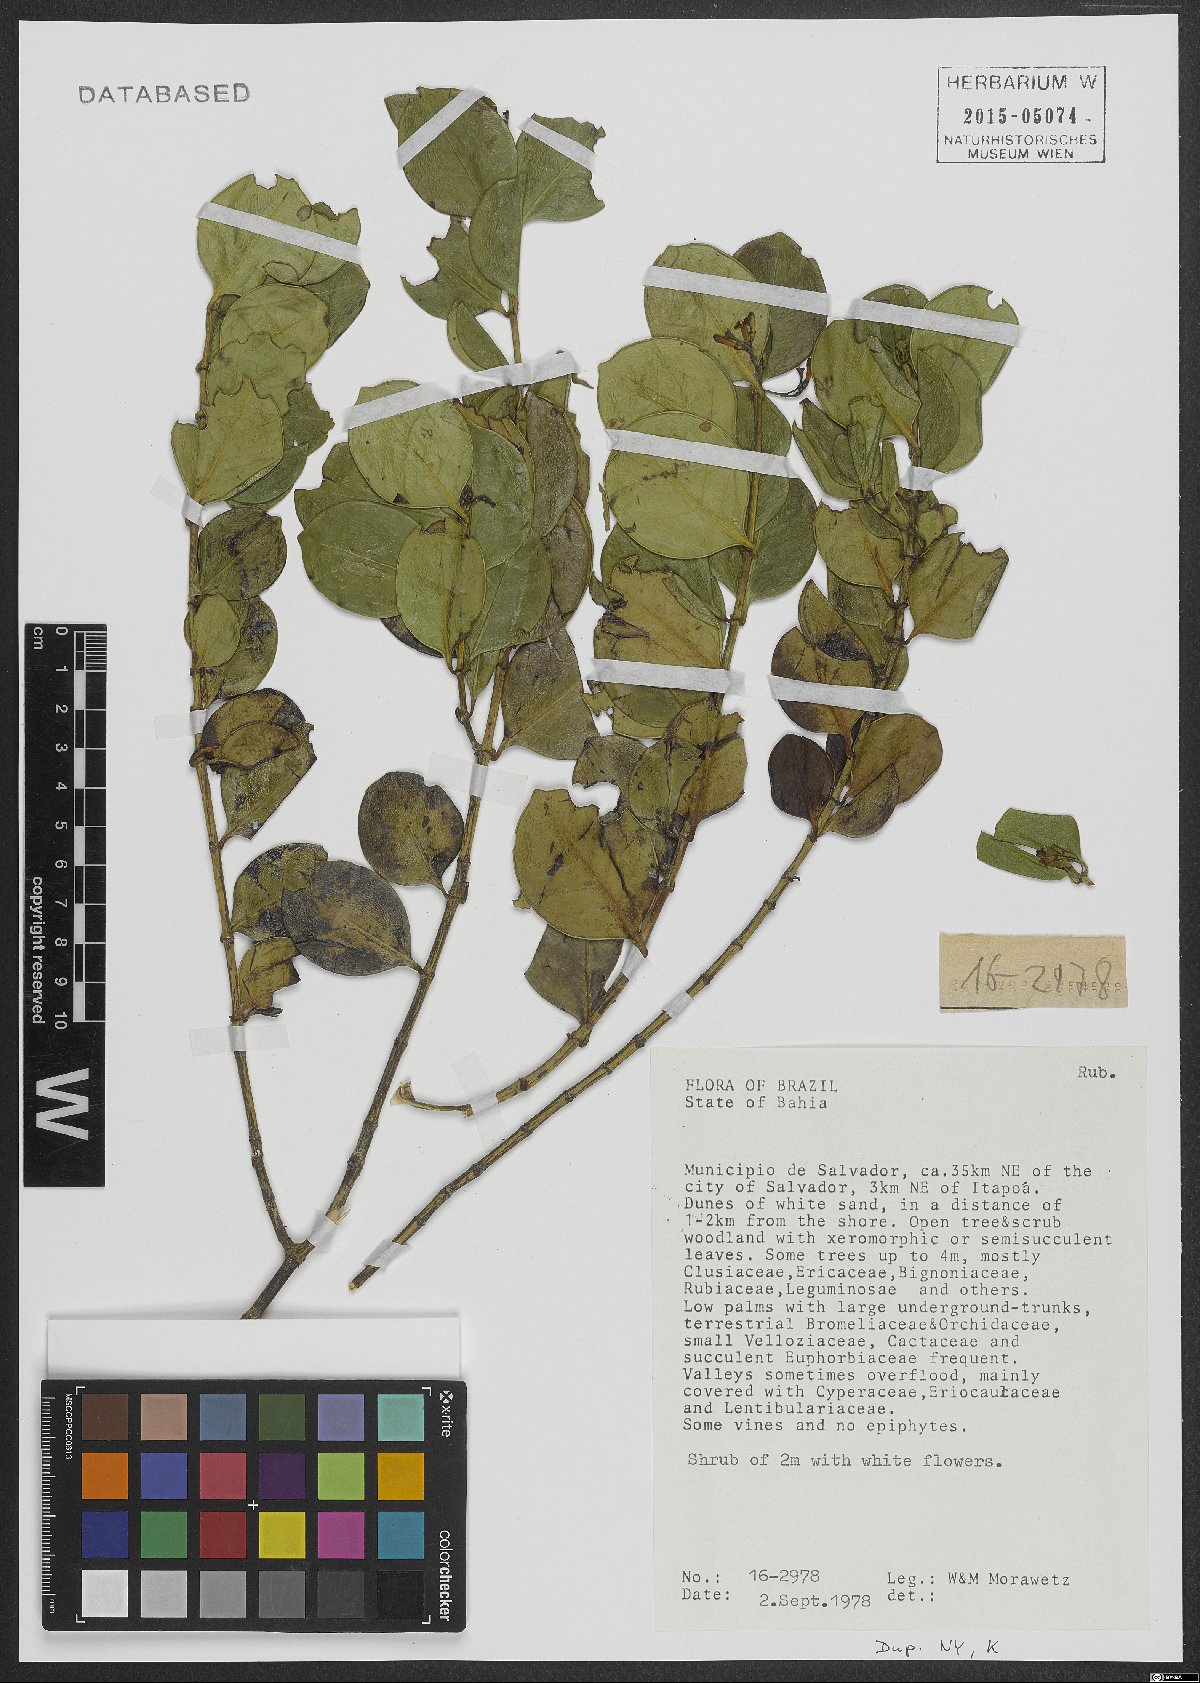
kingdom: Plantae
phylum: Tracheophyta
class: Magnoliopsida
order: Gentianales
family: Rubiaceae
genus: Salzmannia
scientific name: Salzmannia plowmanii
